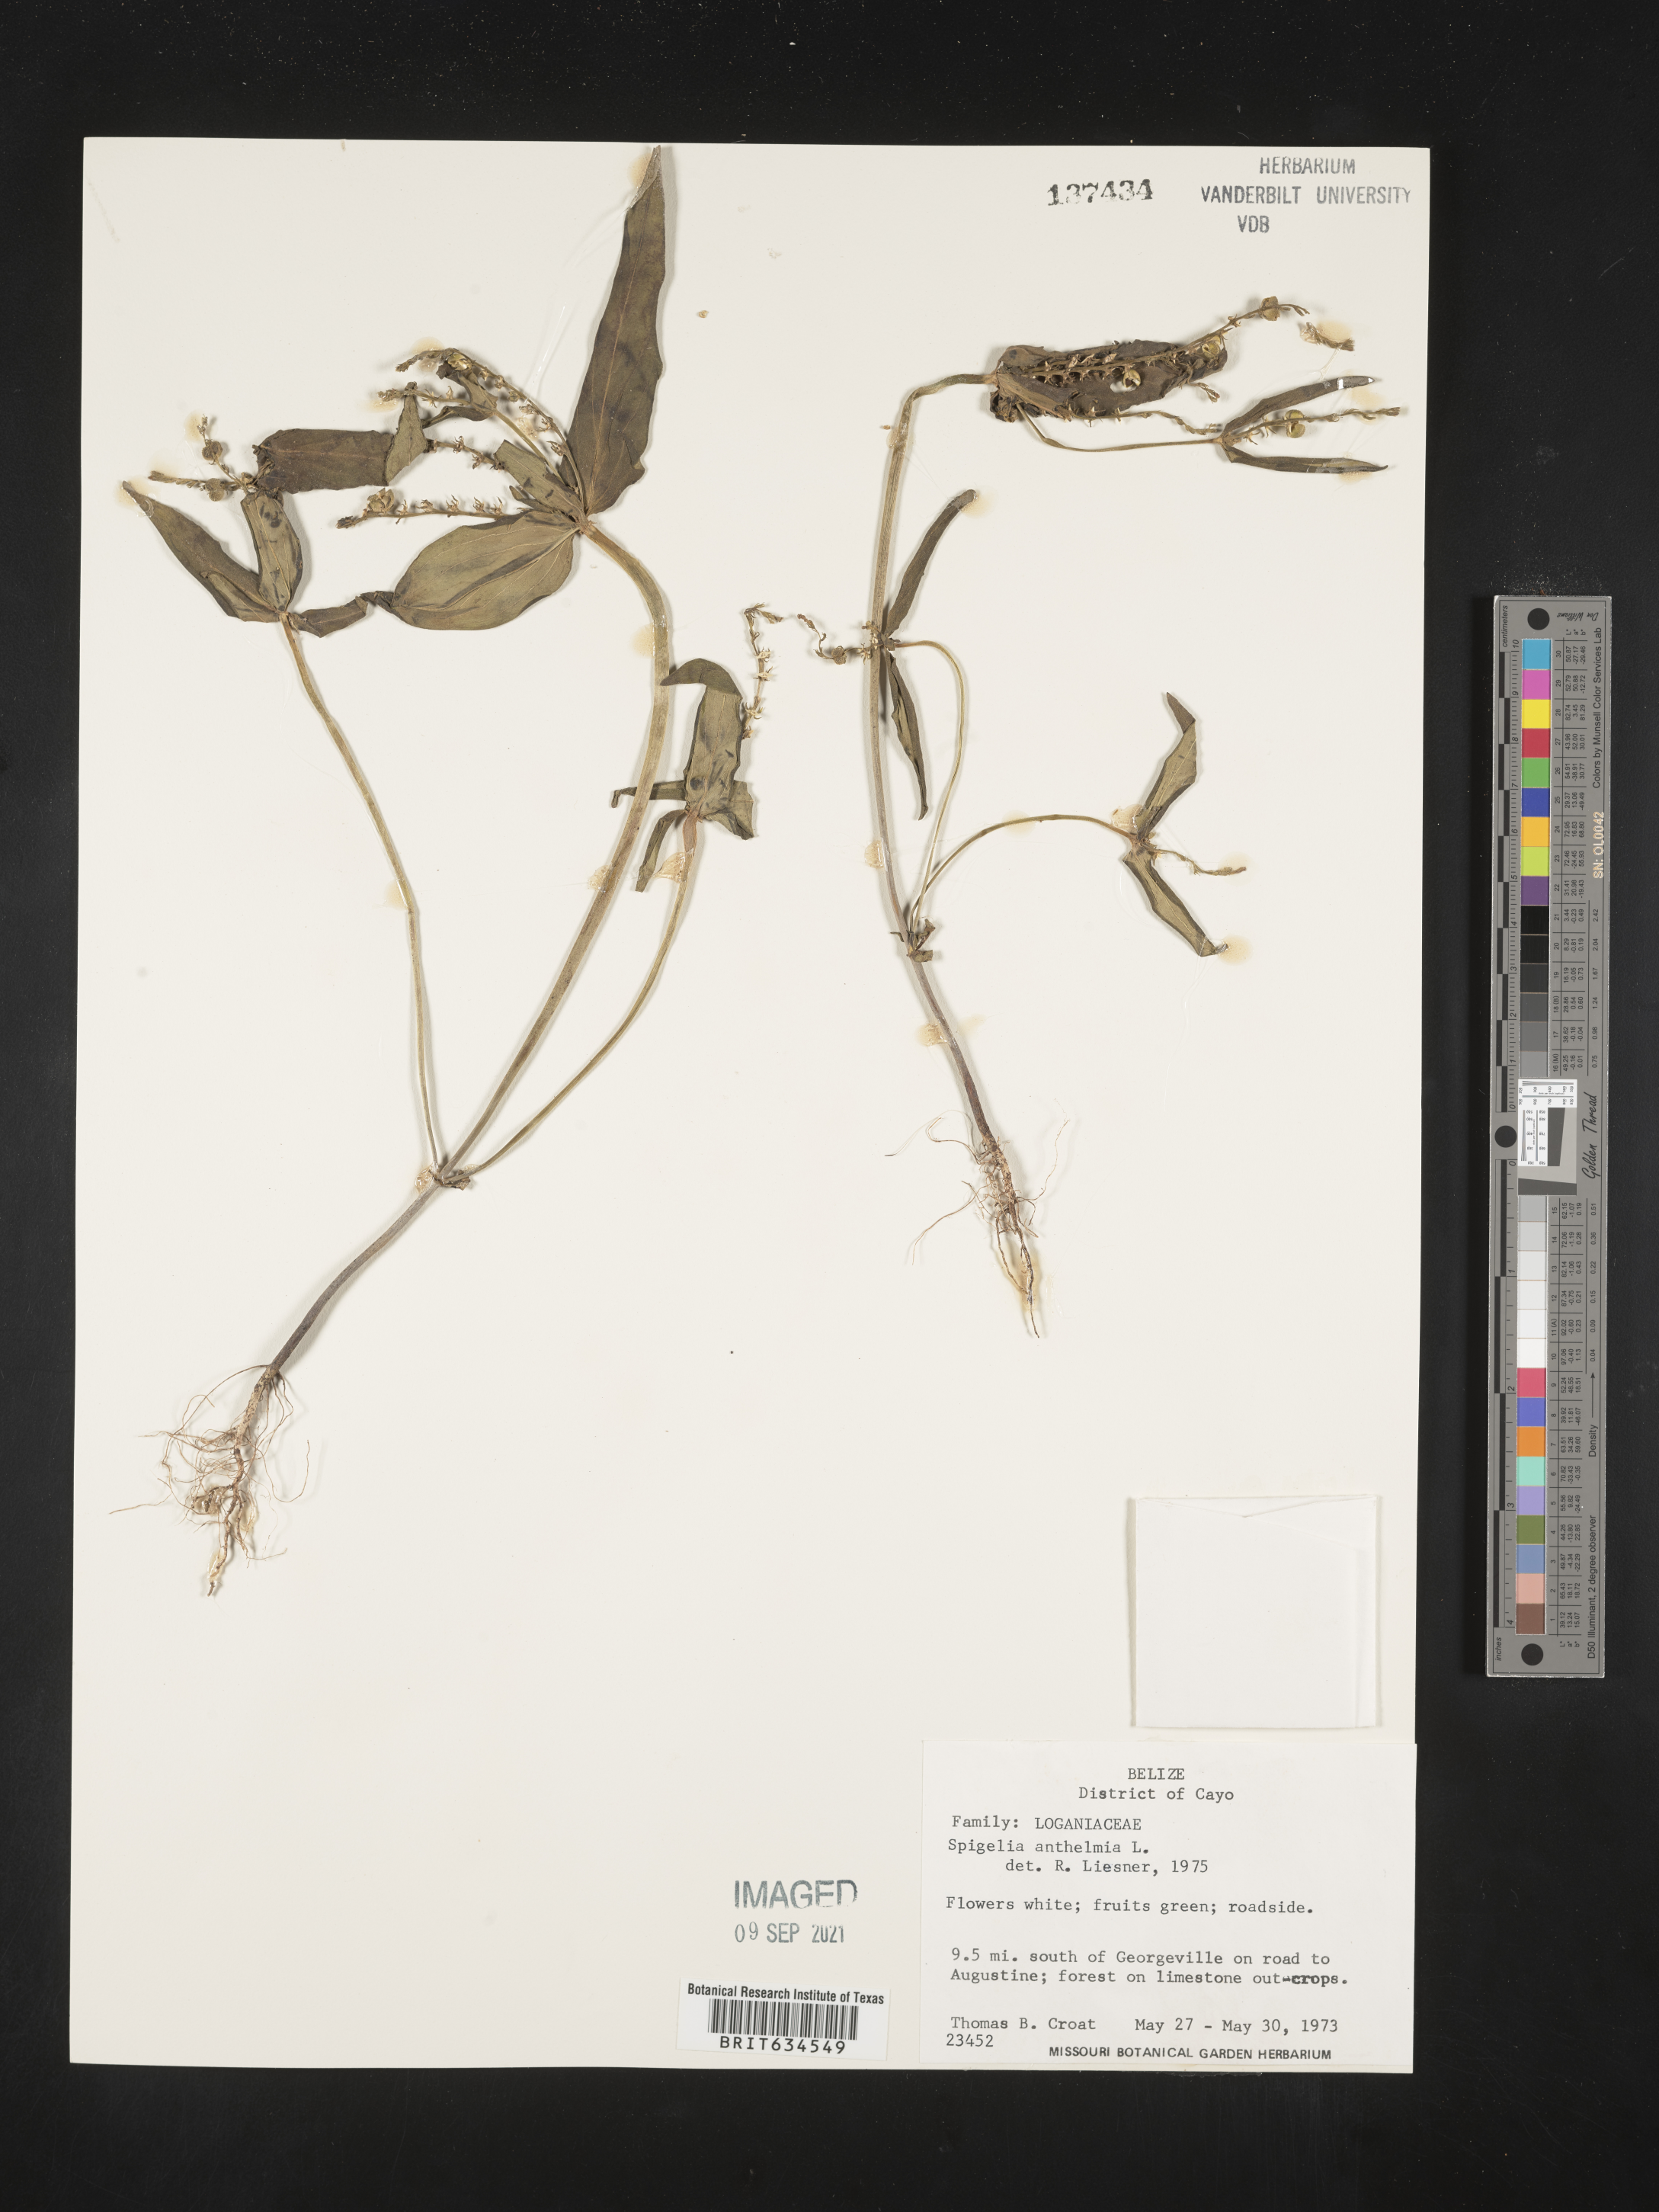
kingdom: Plantae
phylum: Tracheophyta
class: Magnoliopsida
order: Gentianales
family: Loganiaceae
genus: Spigelia
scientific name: Spigelia
